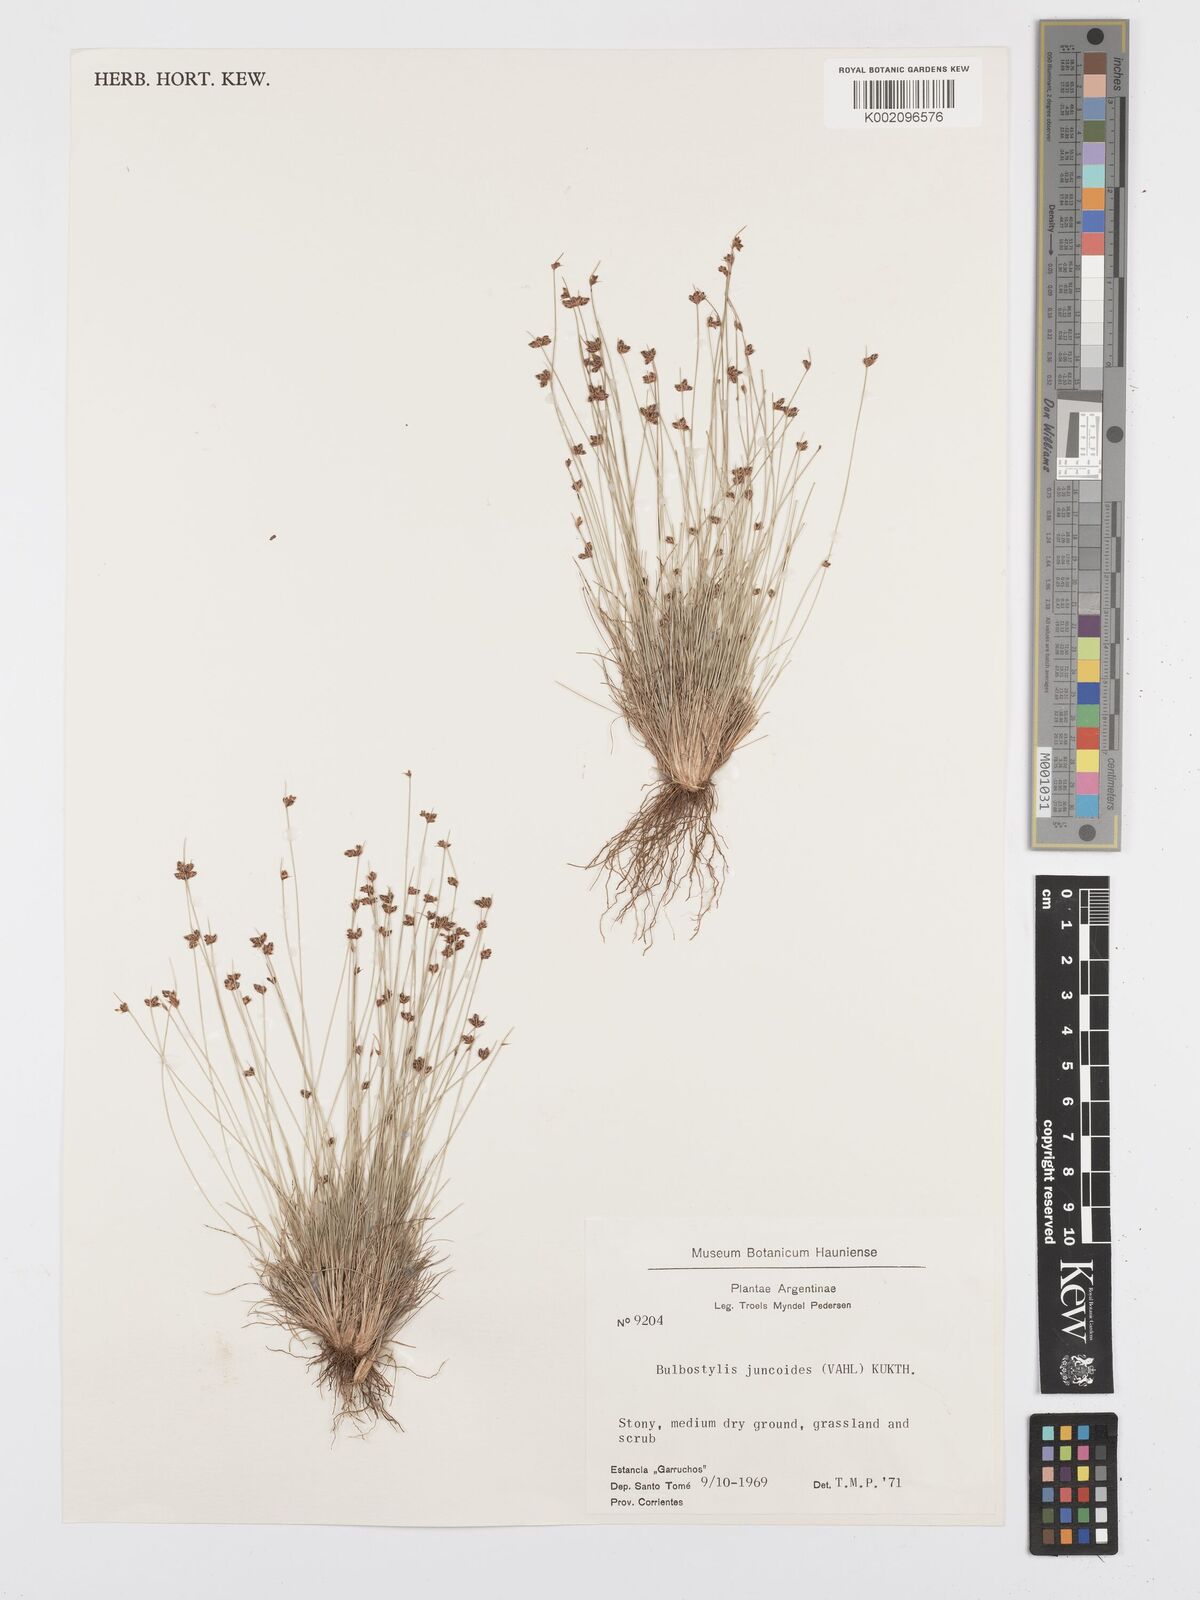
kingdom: Plantae
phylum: Tracheophyta
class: Liliopsida
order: Poales
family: Cyperaceae
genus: Bulbostylis
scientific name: Bulbostylis
